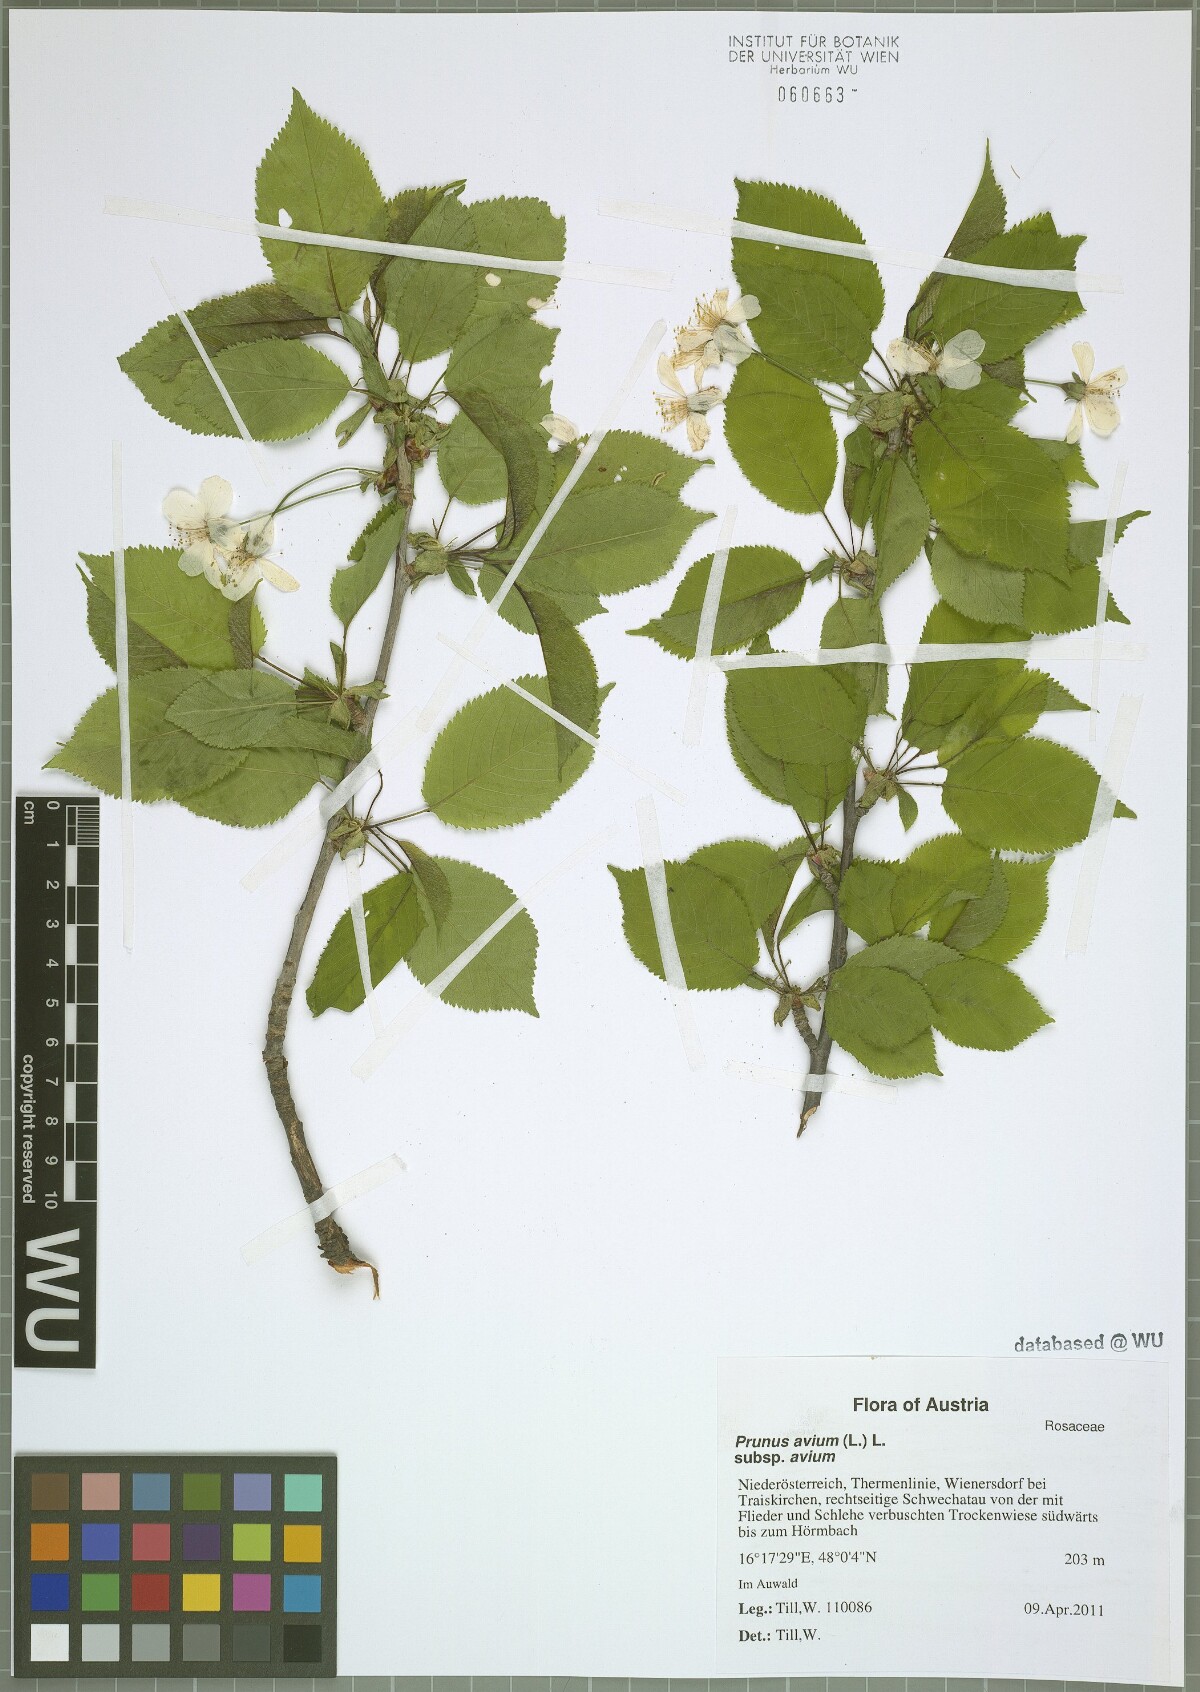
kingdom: Plantae
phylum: Tracheophyta
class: Magnoliopsida
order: Rosales
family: Rosaceae
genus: Prunus
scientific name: Prunus avium
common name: Sweet cherry
